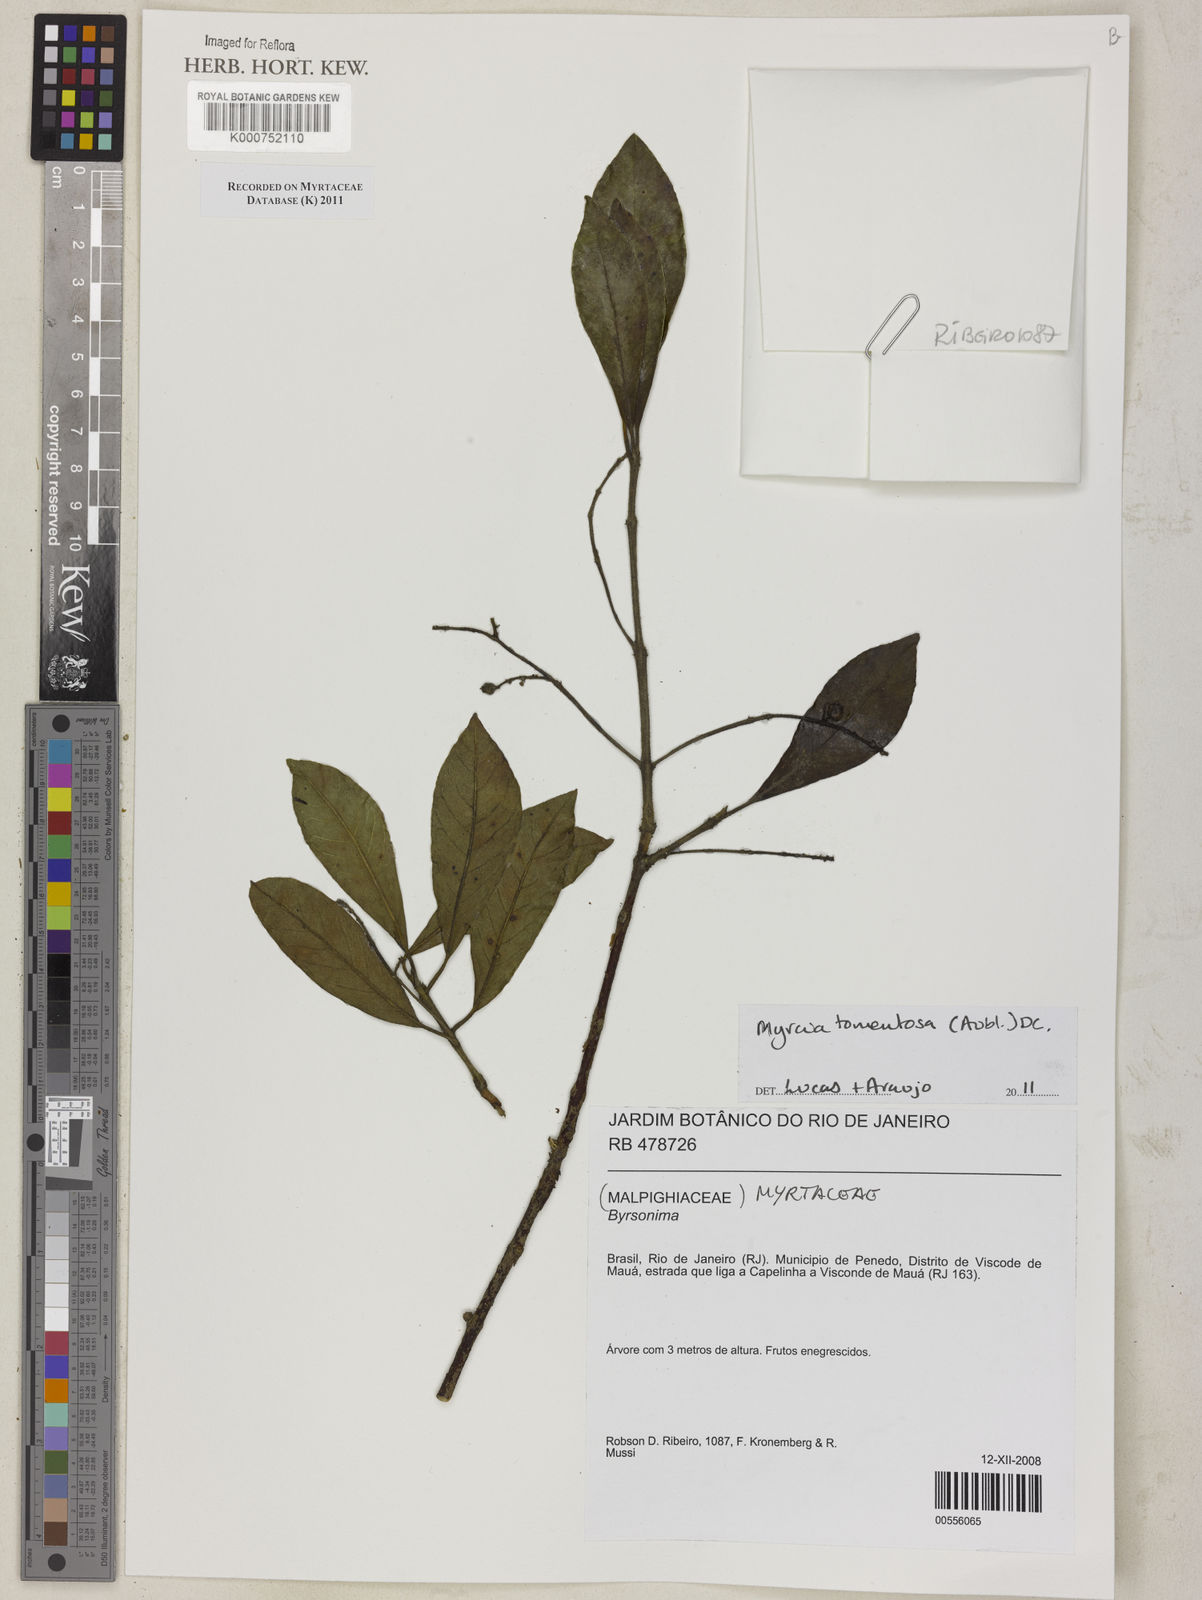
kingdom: Plantae
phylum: Tracheophyta
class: Magnoliopsida
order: Myrtales
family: Myrtaceae
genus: Myrcia
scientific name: Myrcia tomentosa
